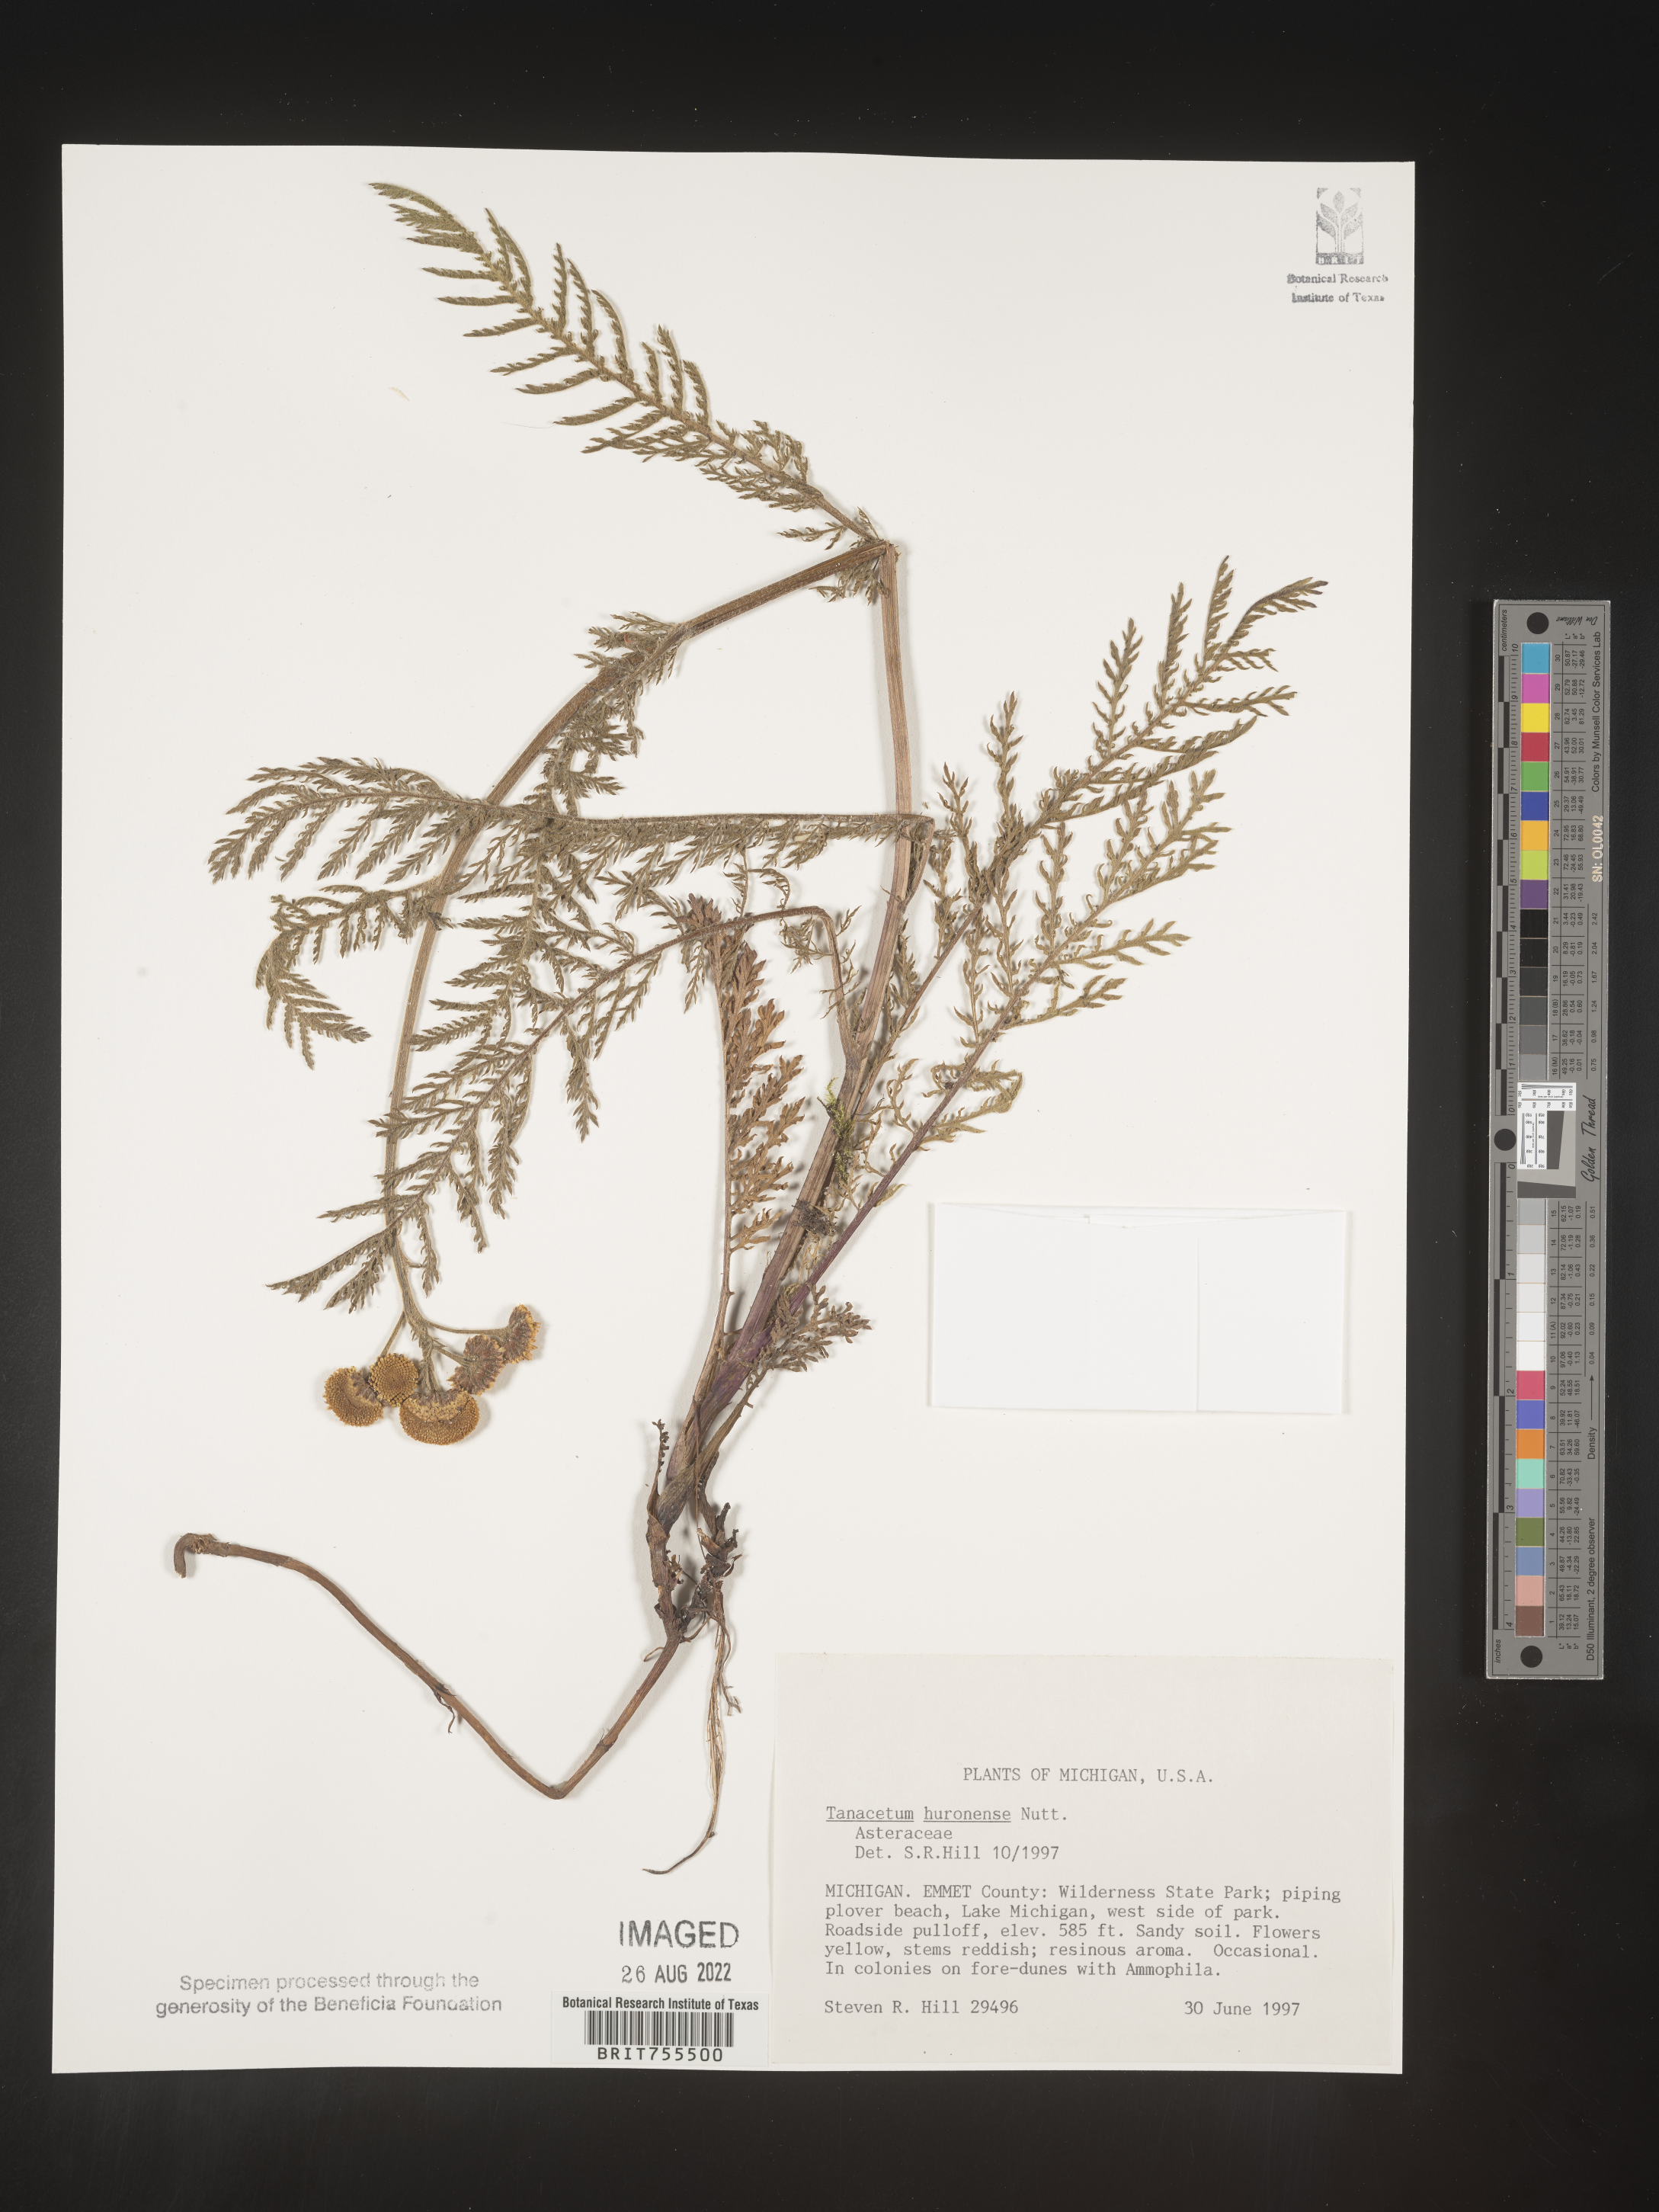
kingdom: Plantae
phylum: Tracheophyta
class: Magnoliopsida
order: Asterales
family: Asteraceae
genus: Tanacetum
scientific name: Tanacetum bipinnatum
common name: Dwarf tansy
